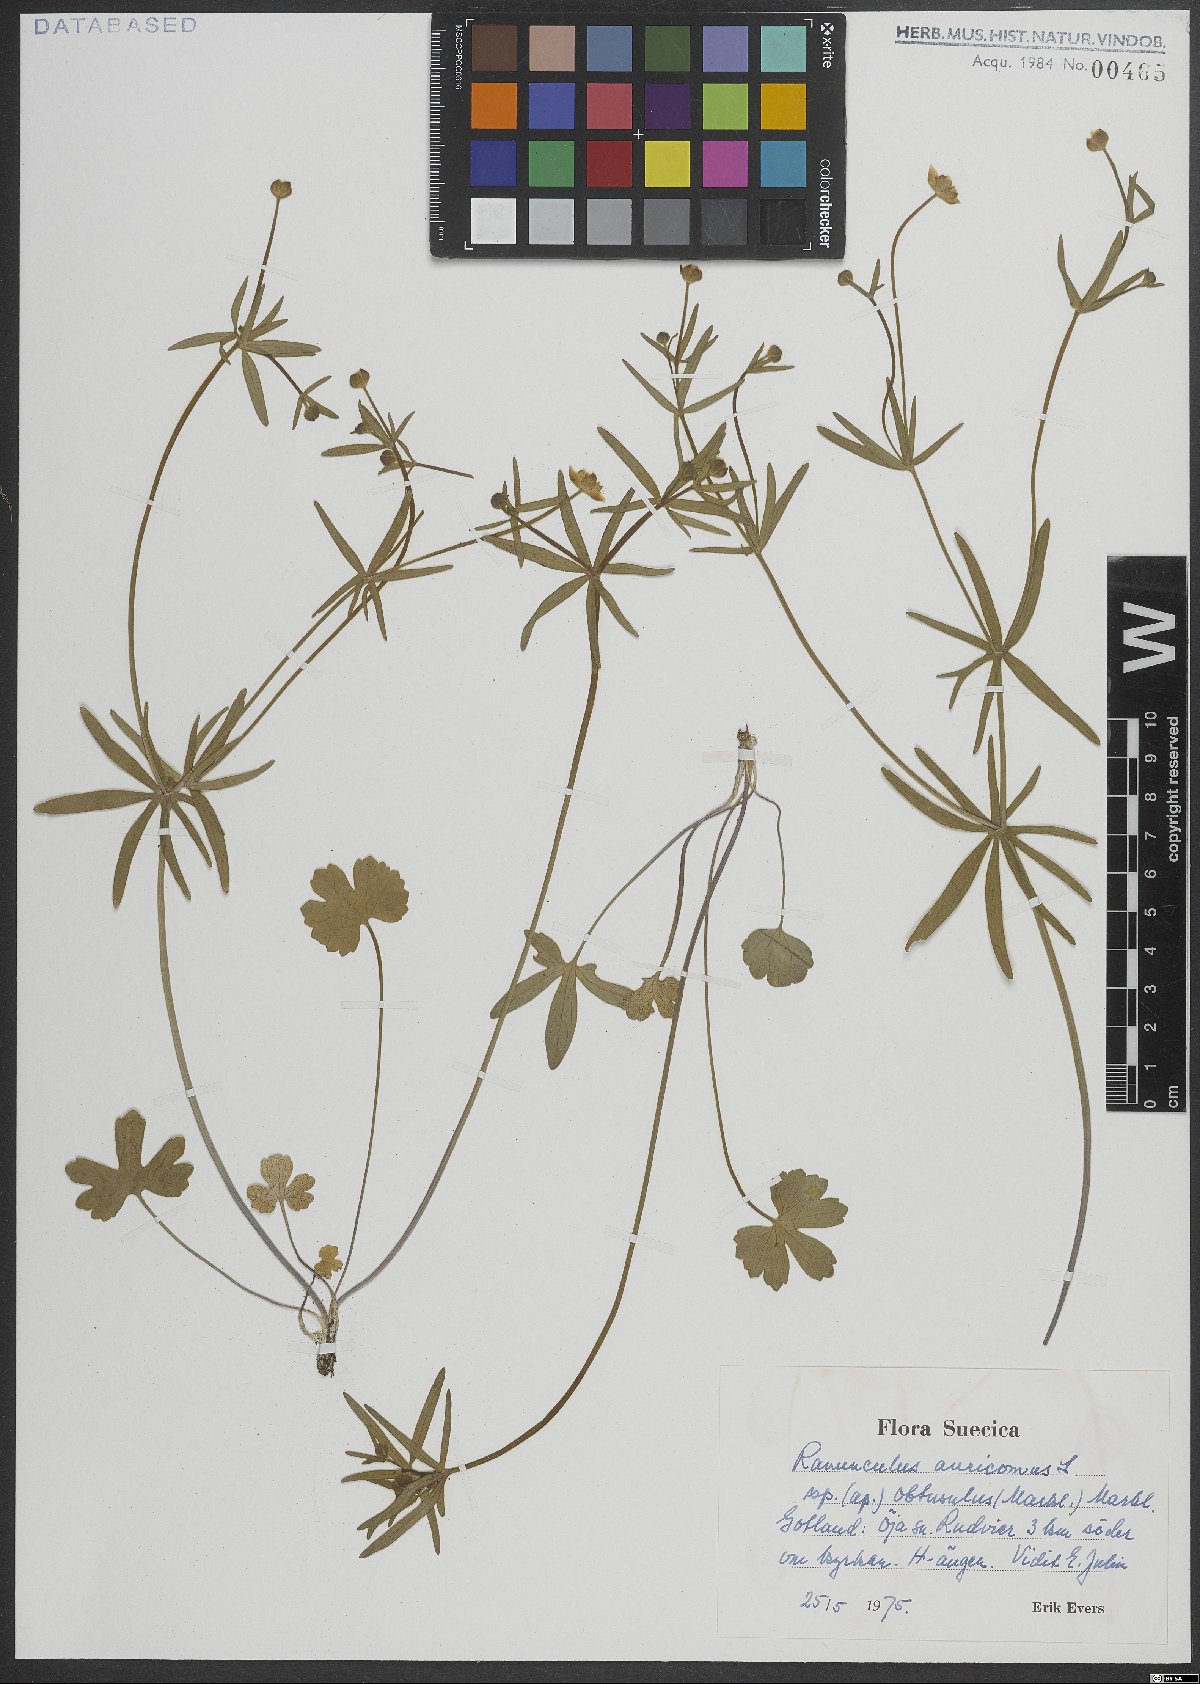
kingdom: Plantae
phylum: Tracheophyta
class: Magnoliopsida
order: Ranunculales
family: Ranunculaceae
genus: Ranunculus
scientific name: Ranunculus auricomus
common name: Goldilocks buttercup
